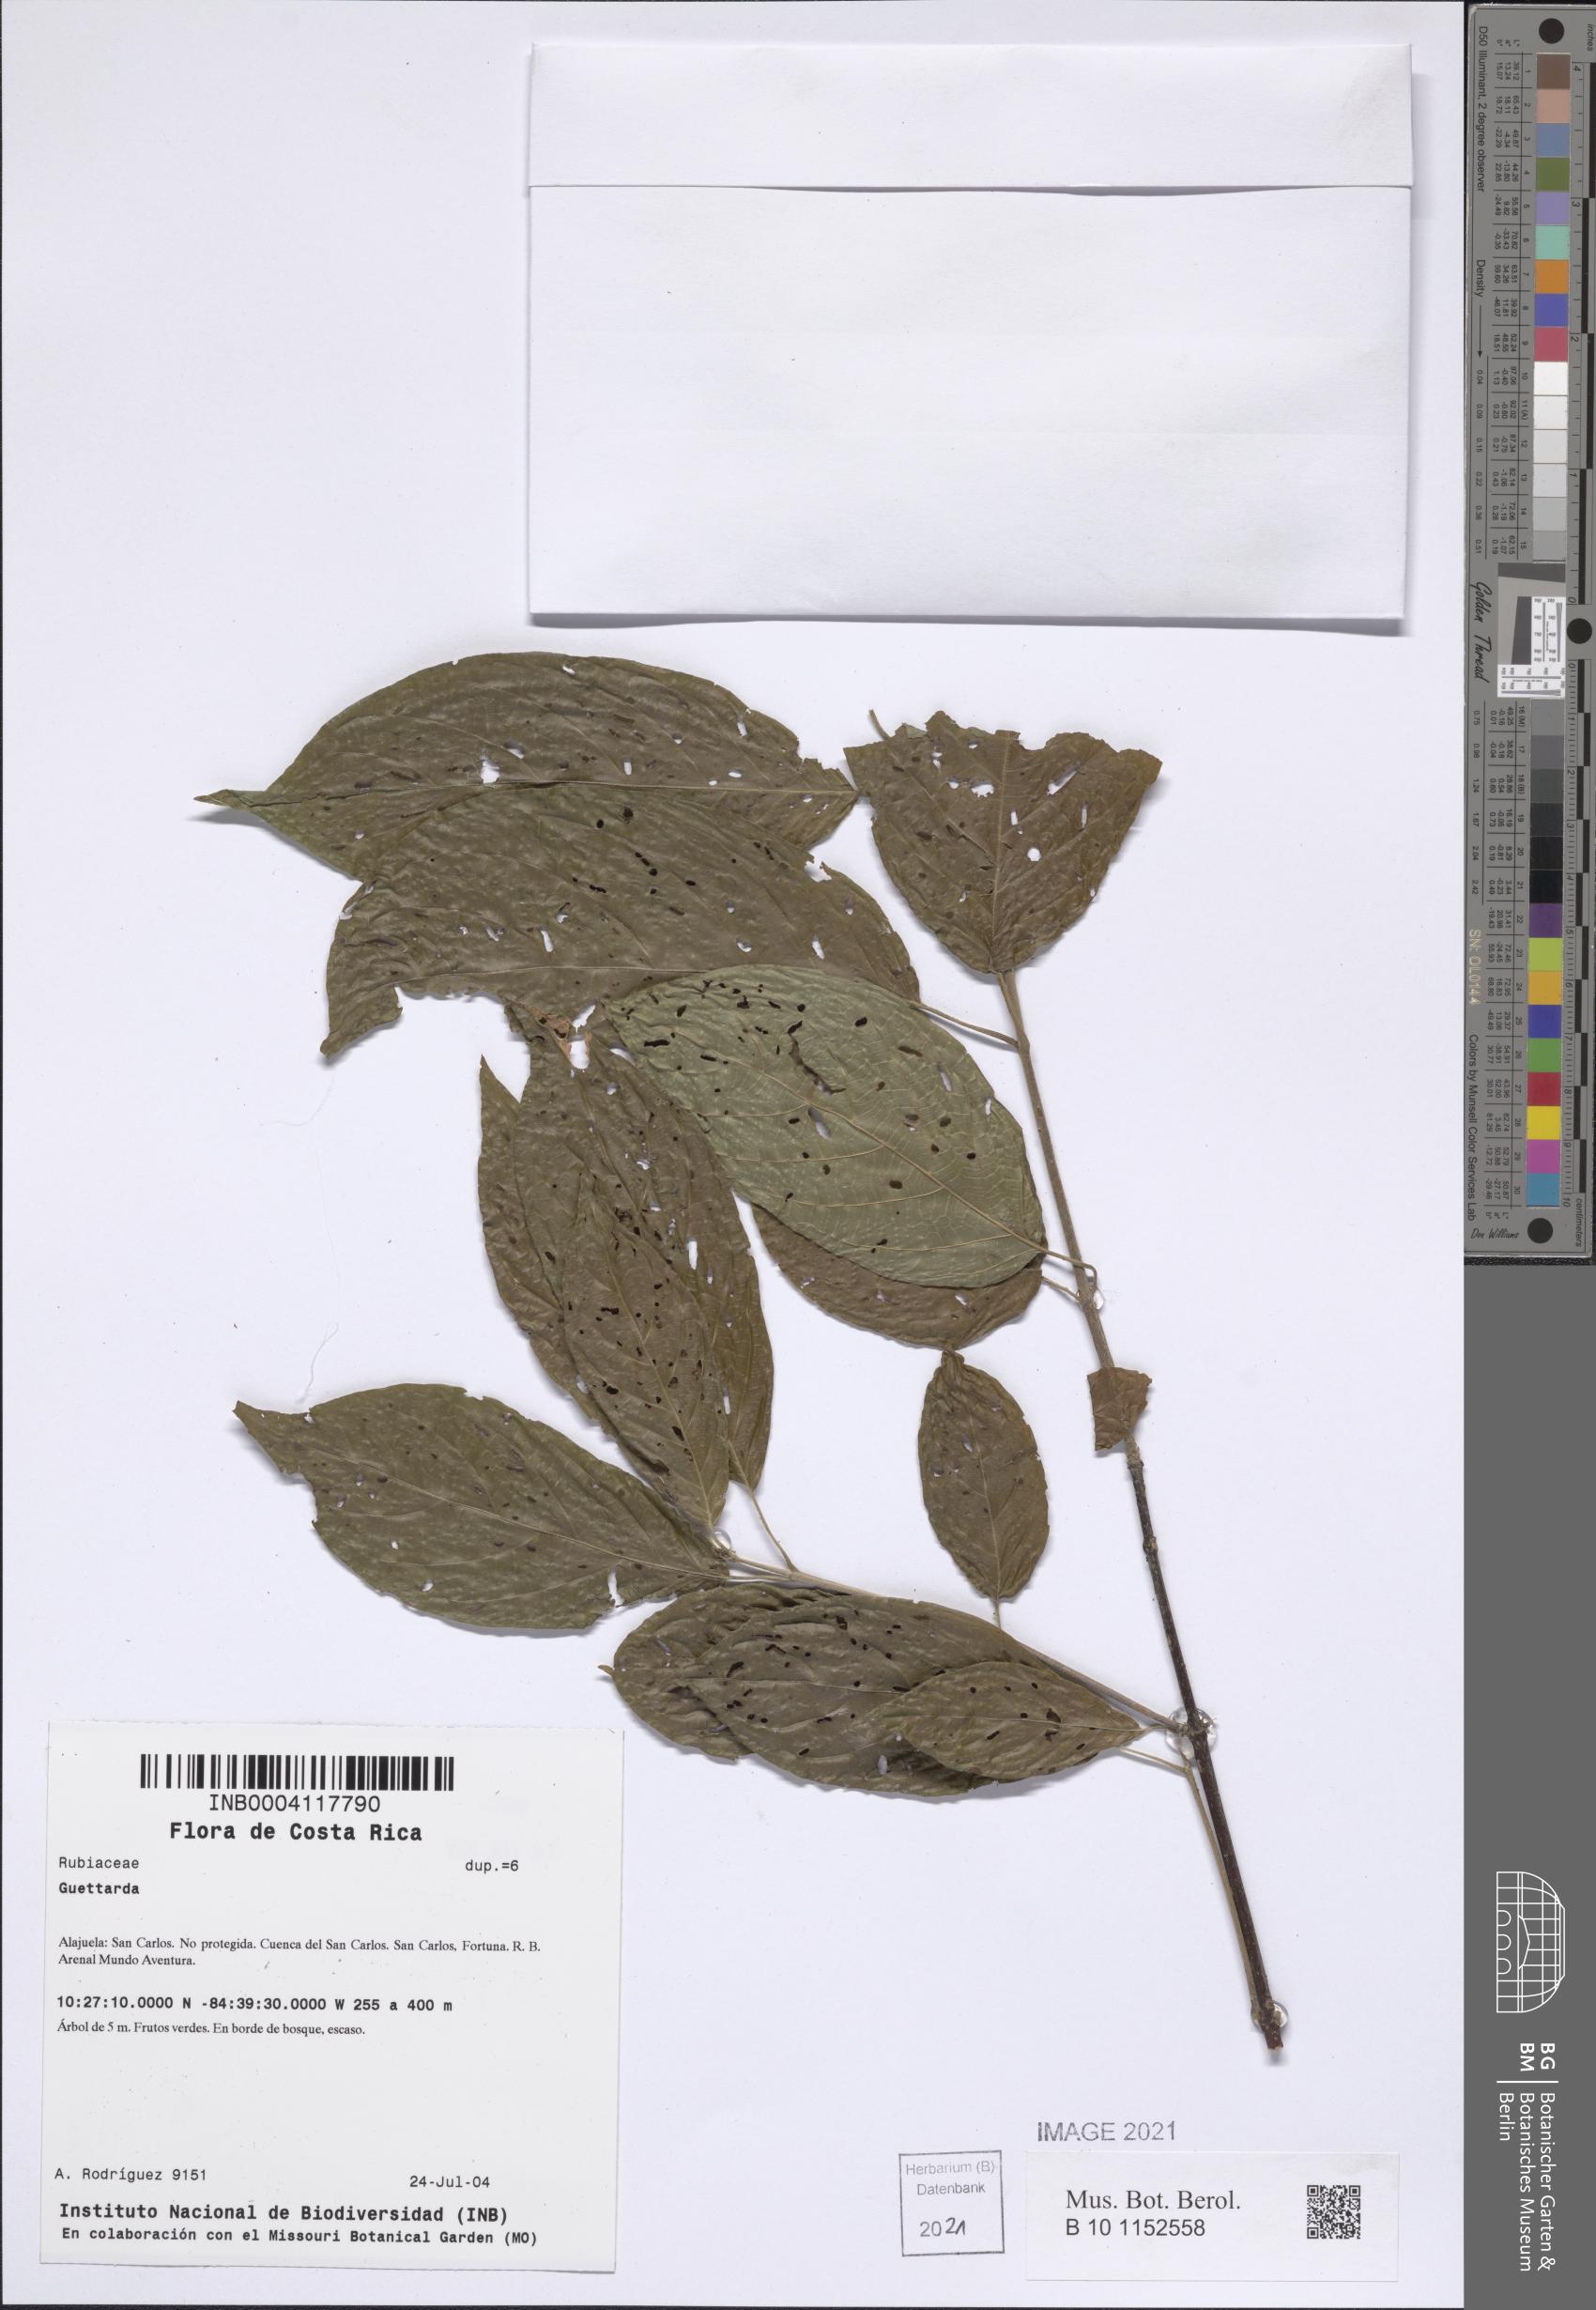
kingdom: Plantae
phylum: Tracheophyta
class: Magnoliopsida
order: Gentianales
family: Rubiaceae
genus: Guettarda
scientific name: Guettarda foliacea
